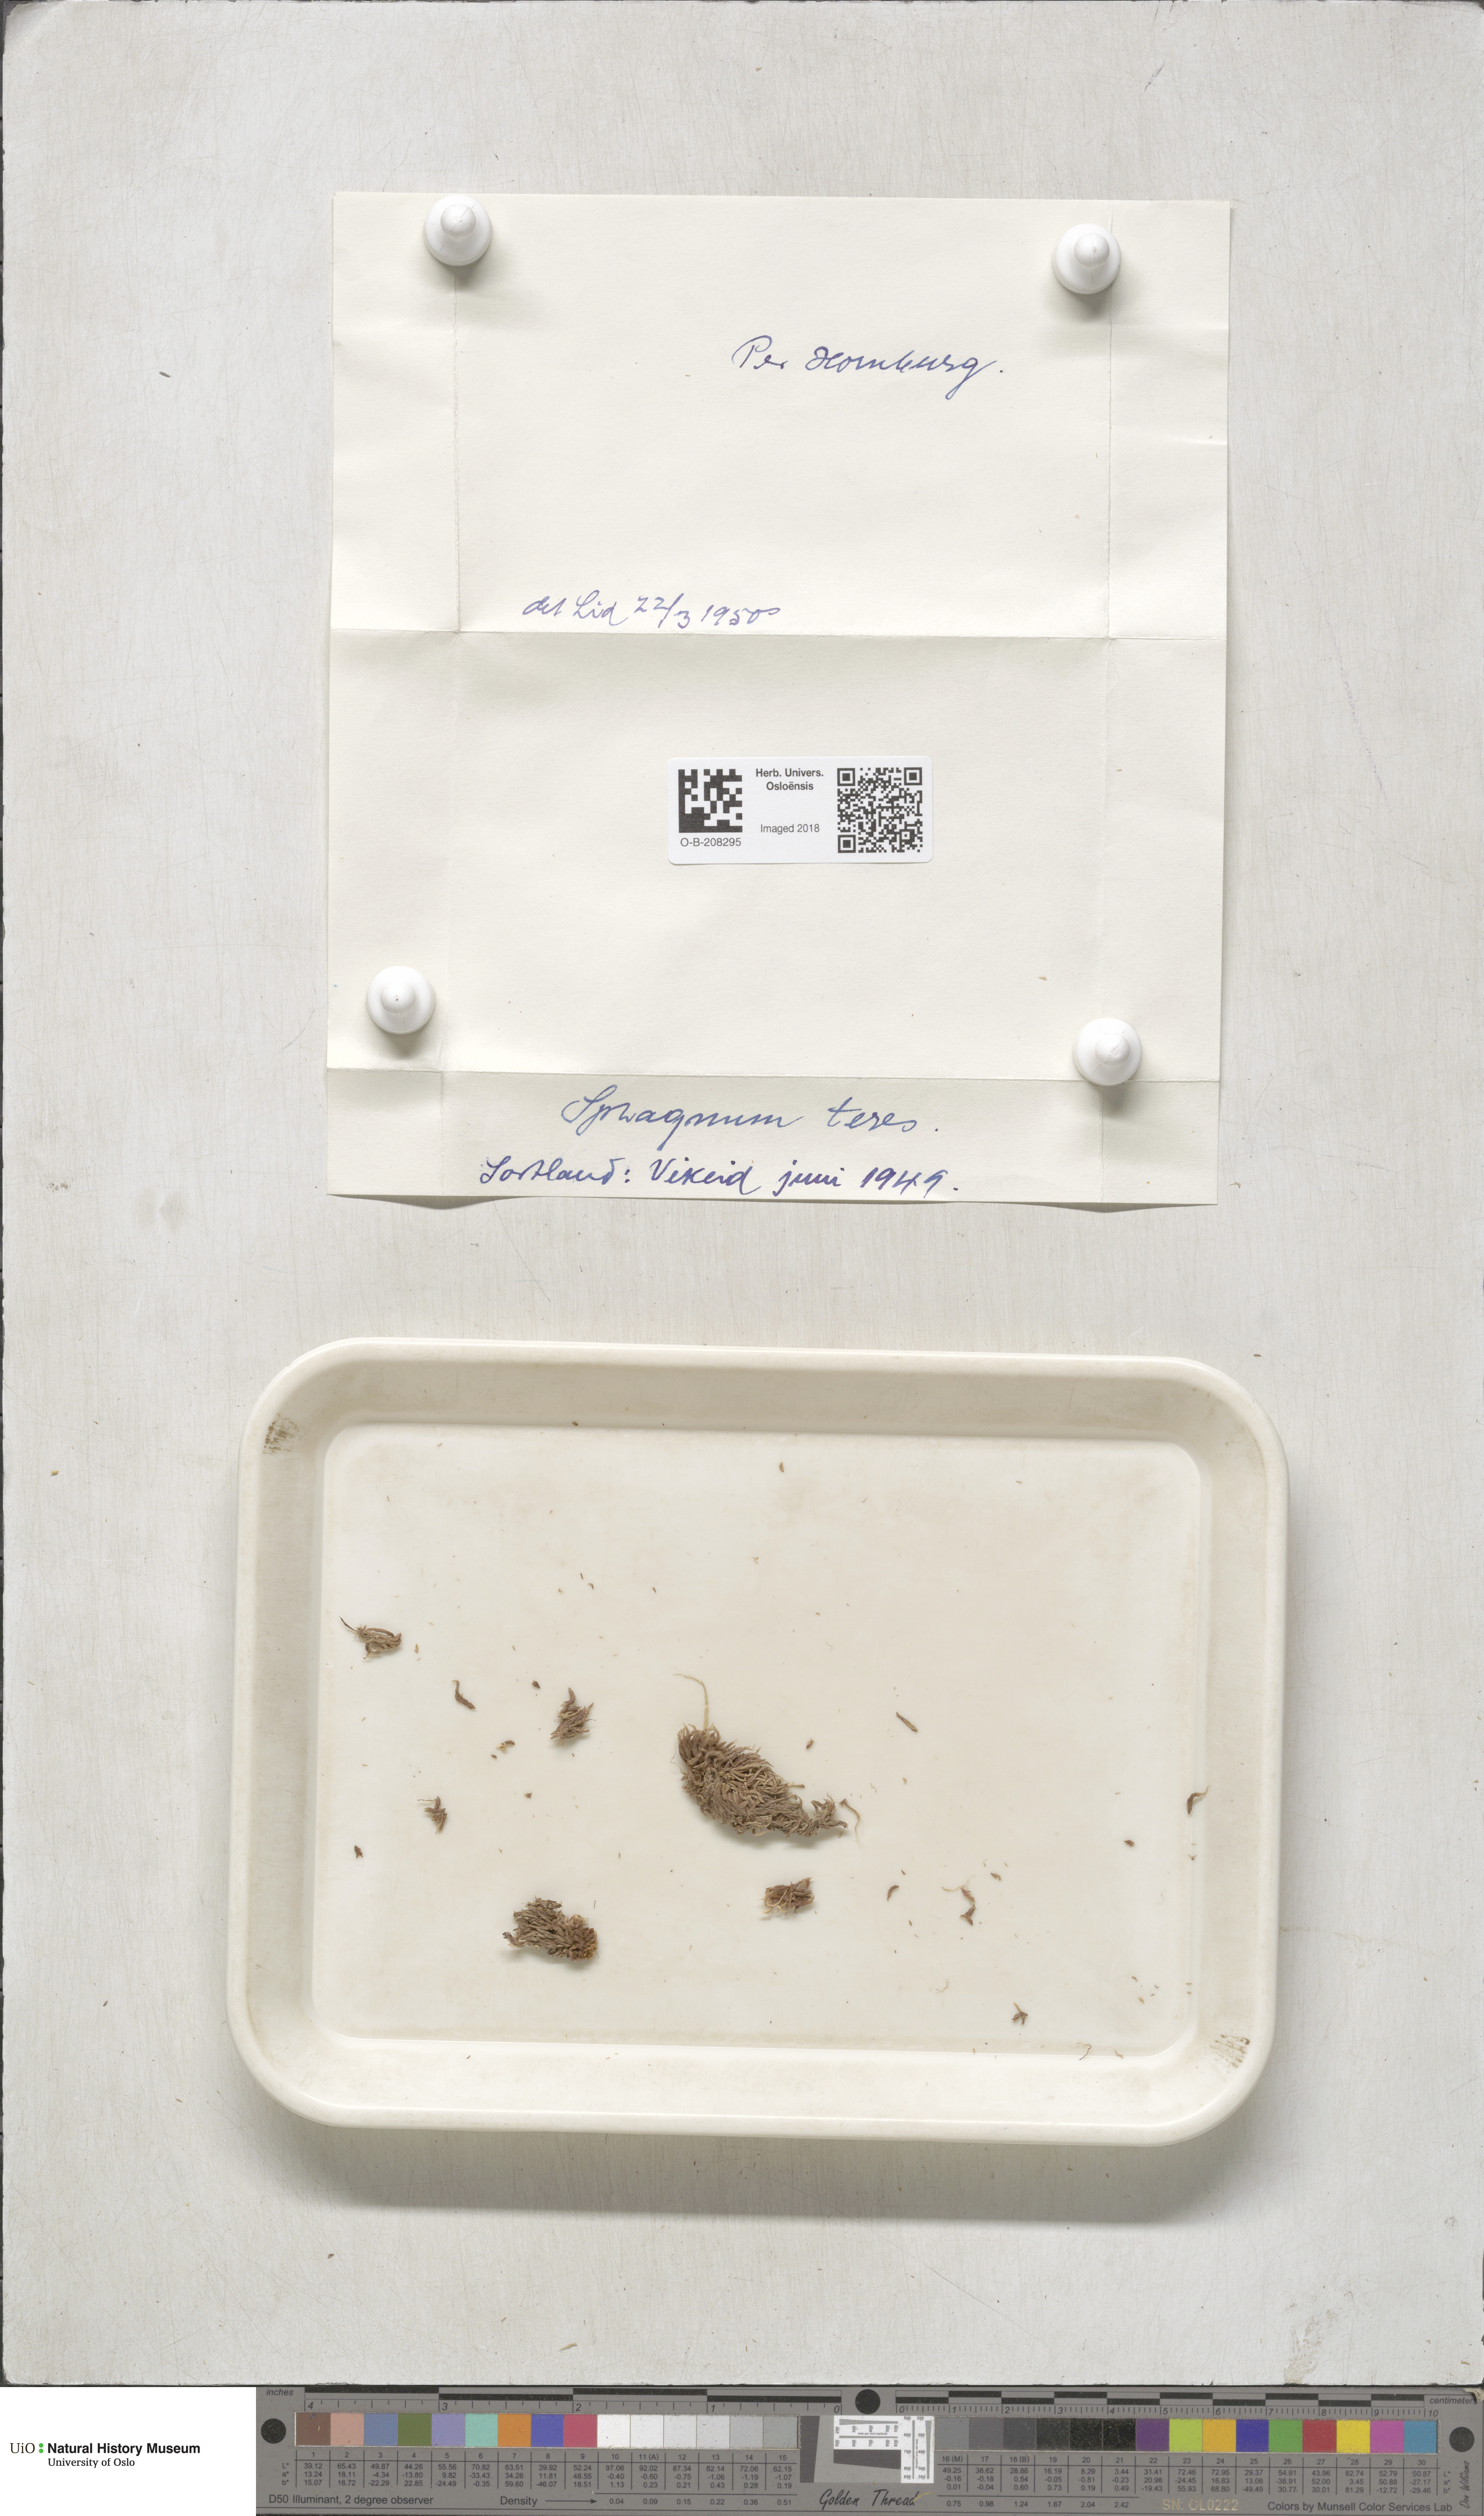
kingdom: Plantae
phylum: Bryophyta
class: Sphagnopsida
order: Sphagnales
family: Sphagnaceae
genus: Sphagnum
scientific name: Sphagnum teres
